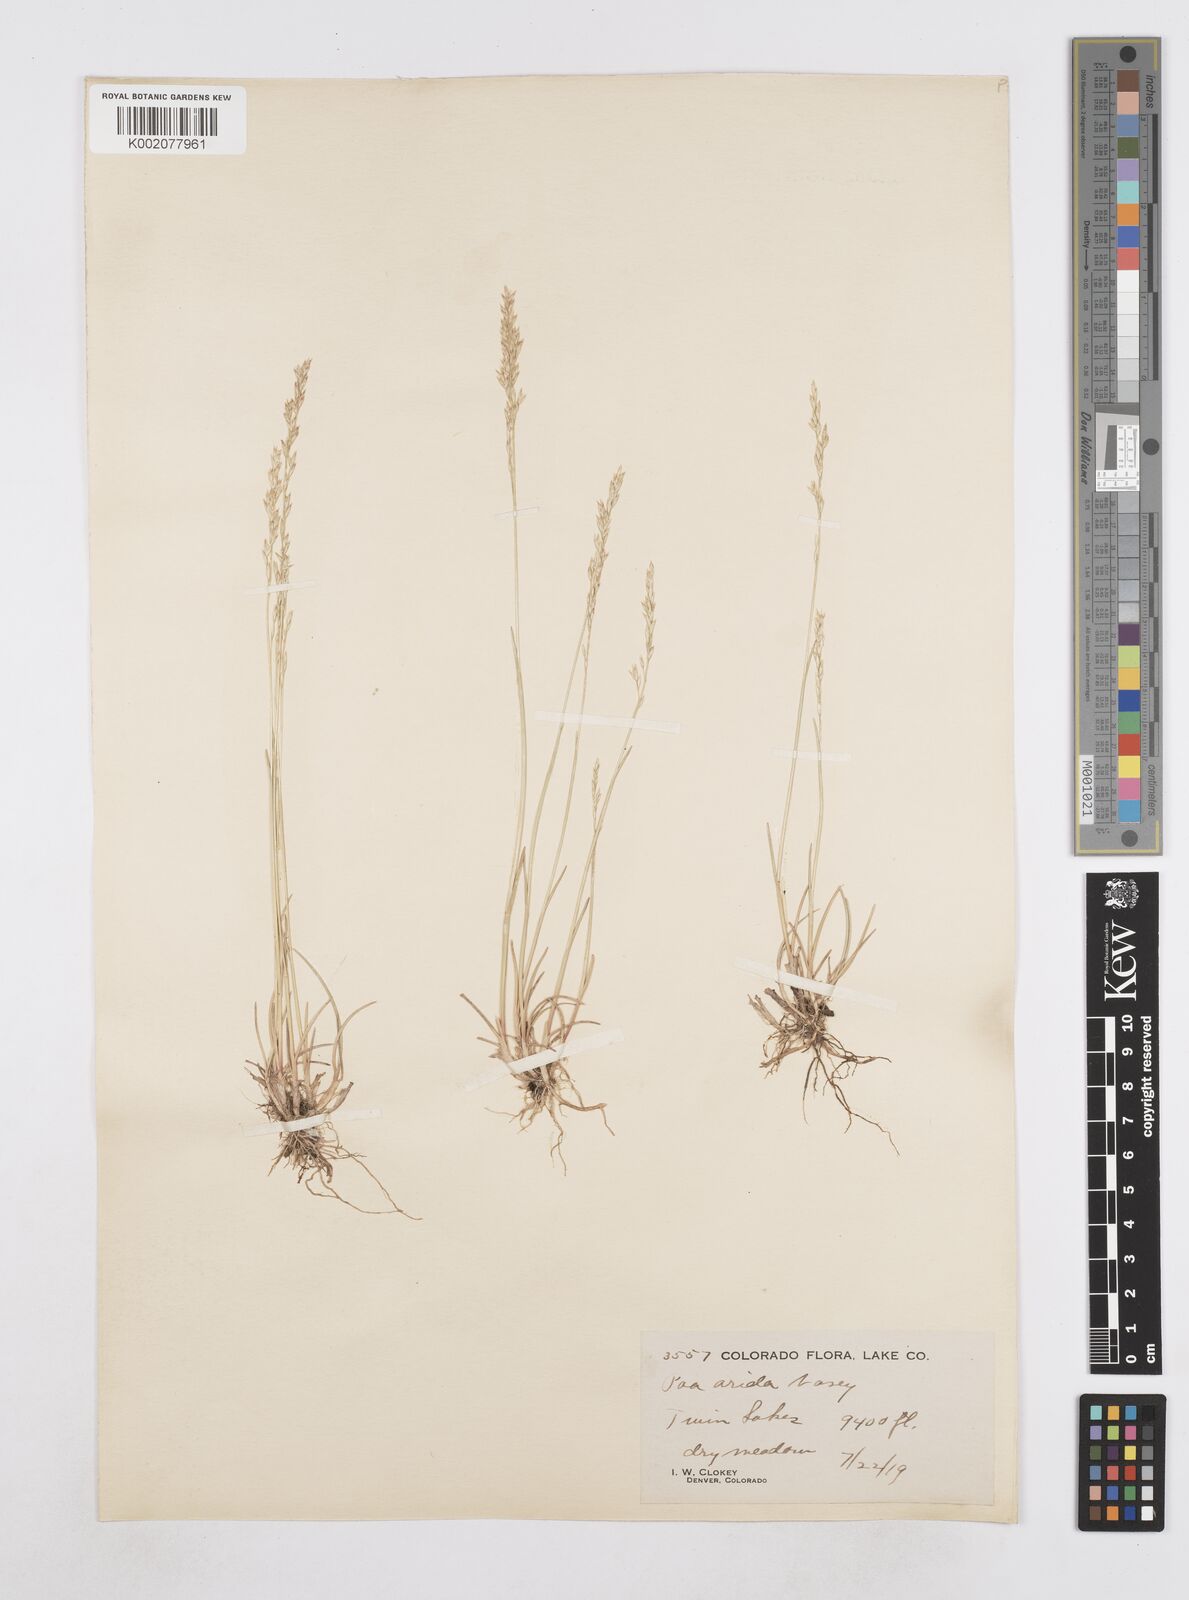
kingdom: Plantae
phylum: Tracheophyta
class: Liliopsida
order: Poales
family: Poaceae
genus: Poa
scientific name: Poa arida
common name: Plains bluegrass
